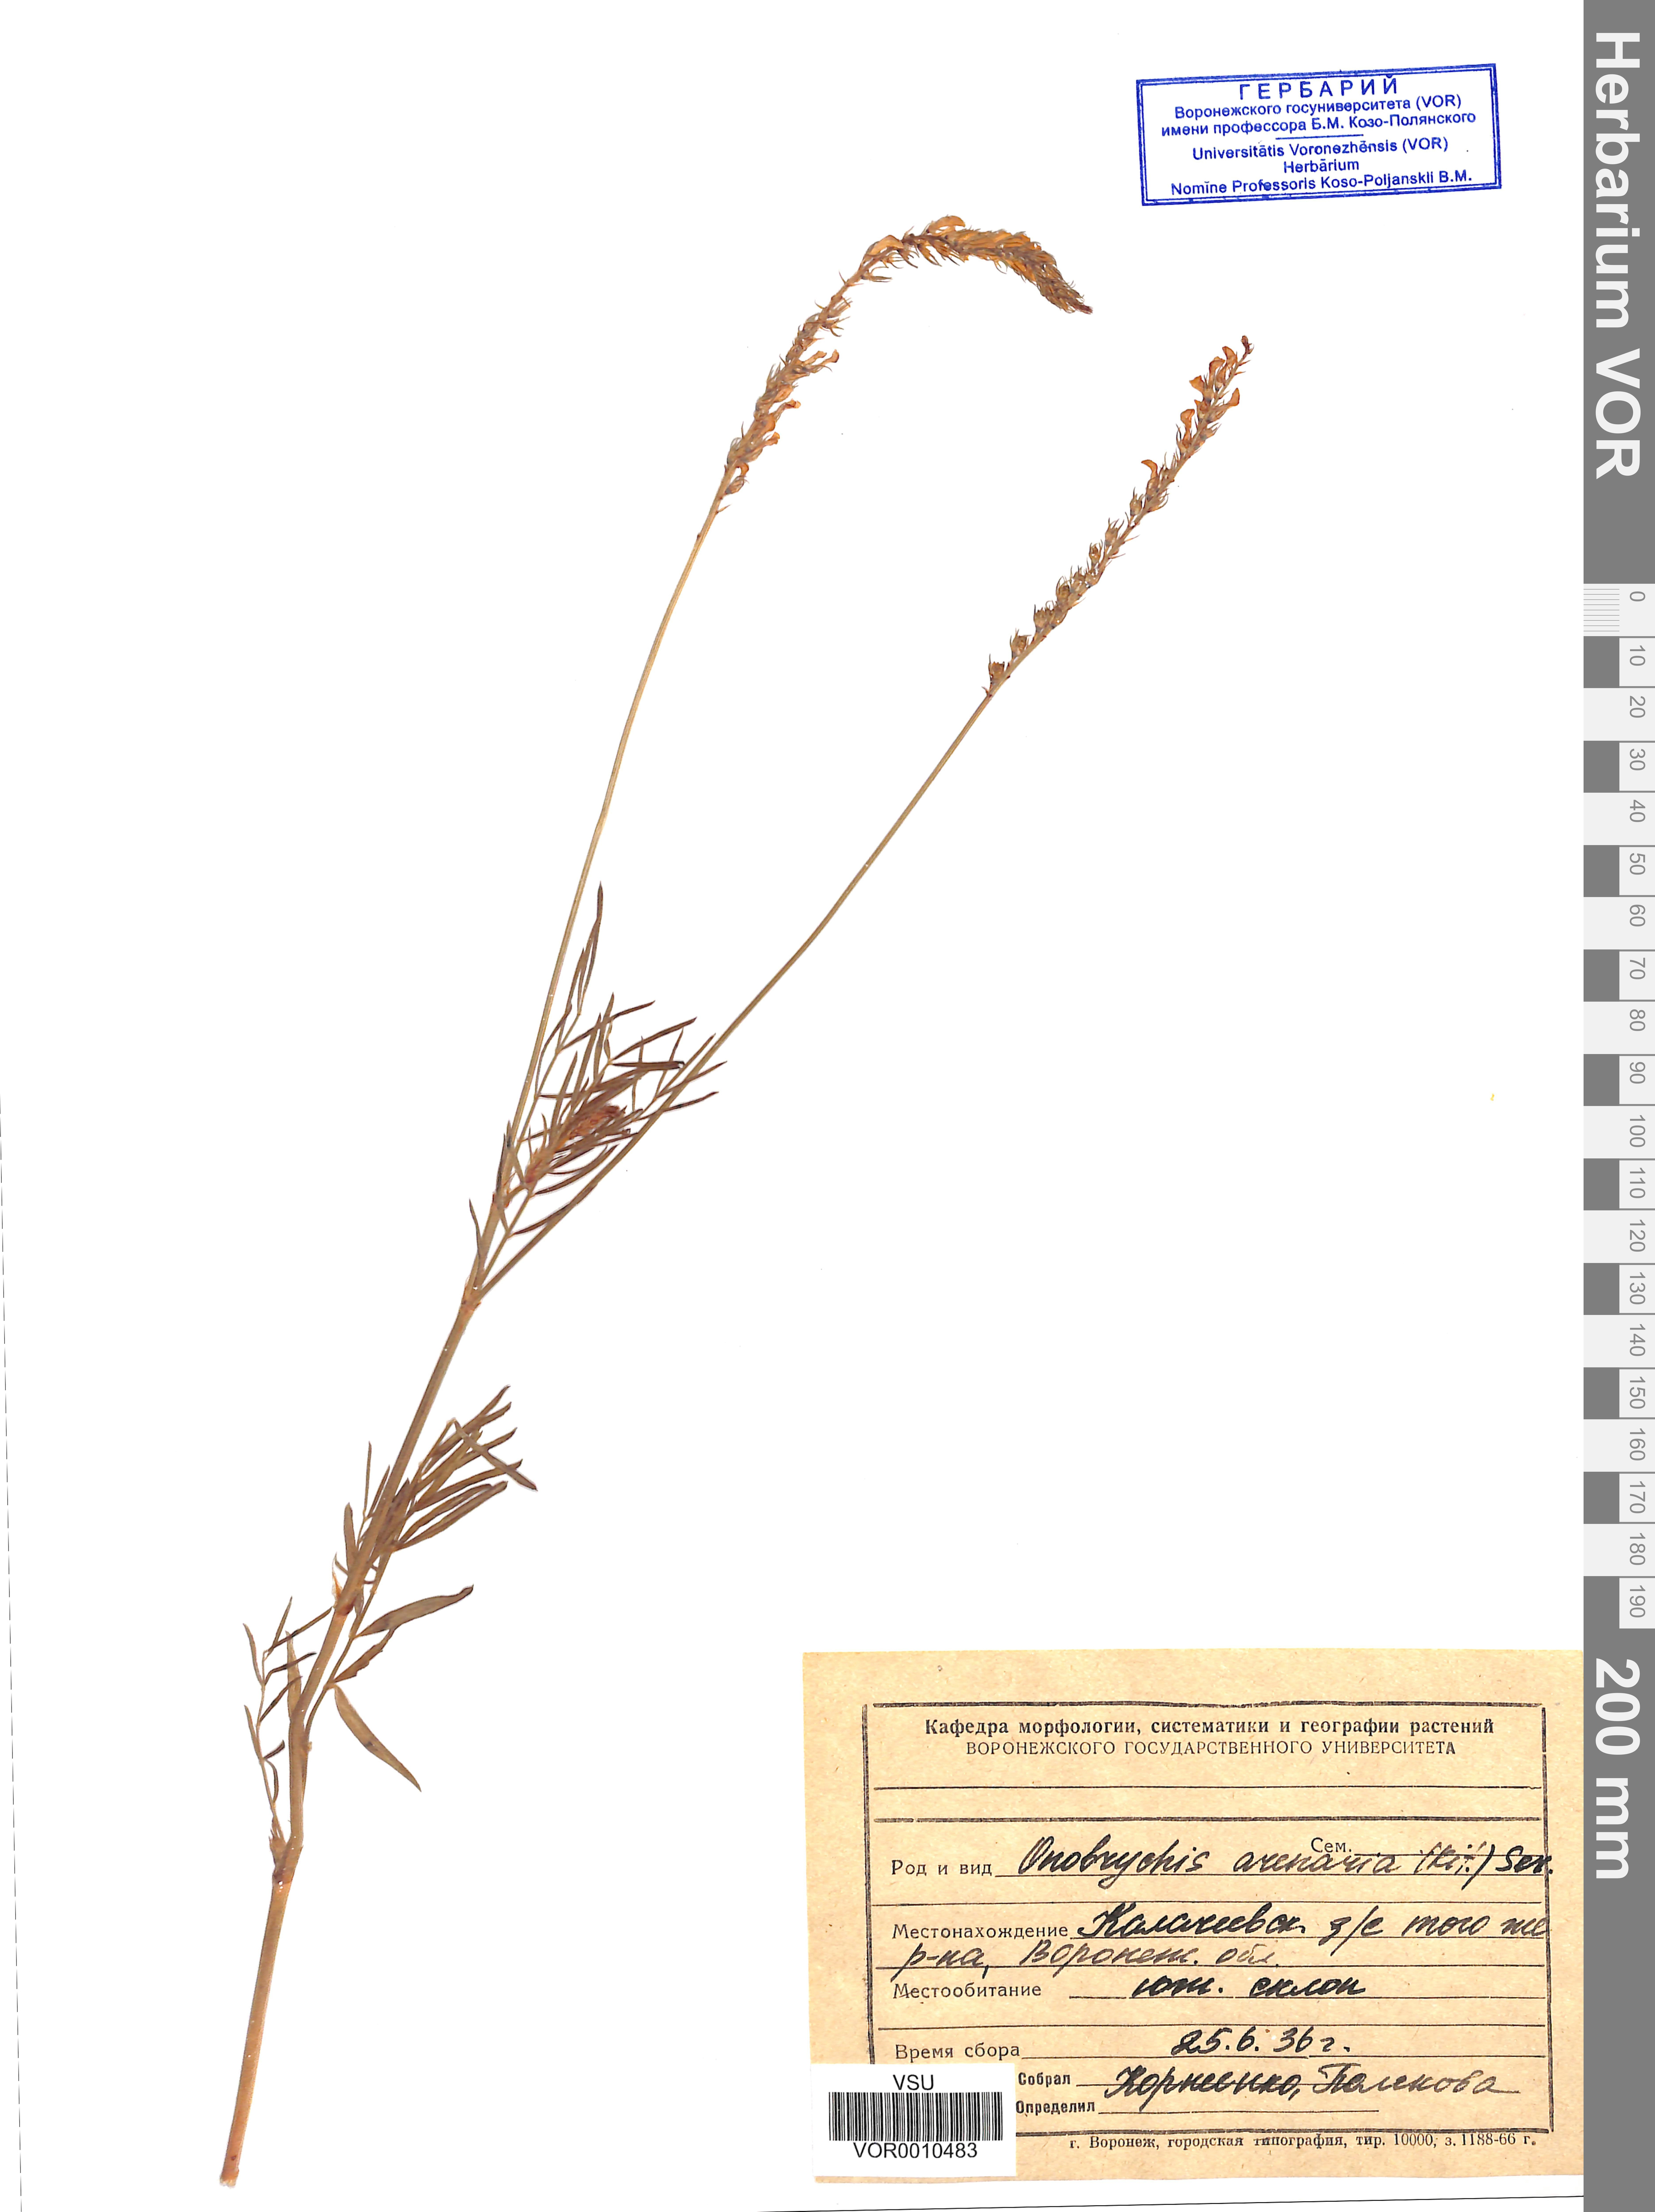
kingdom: Plantae
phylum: Tracheophyta
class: Magnoliopsida
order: Fabales
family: Fabaceae
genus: Onobrychis
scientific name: Onobrychis arenaria
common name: Sand esparcet
